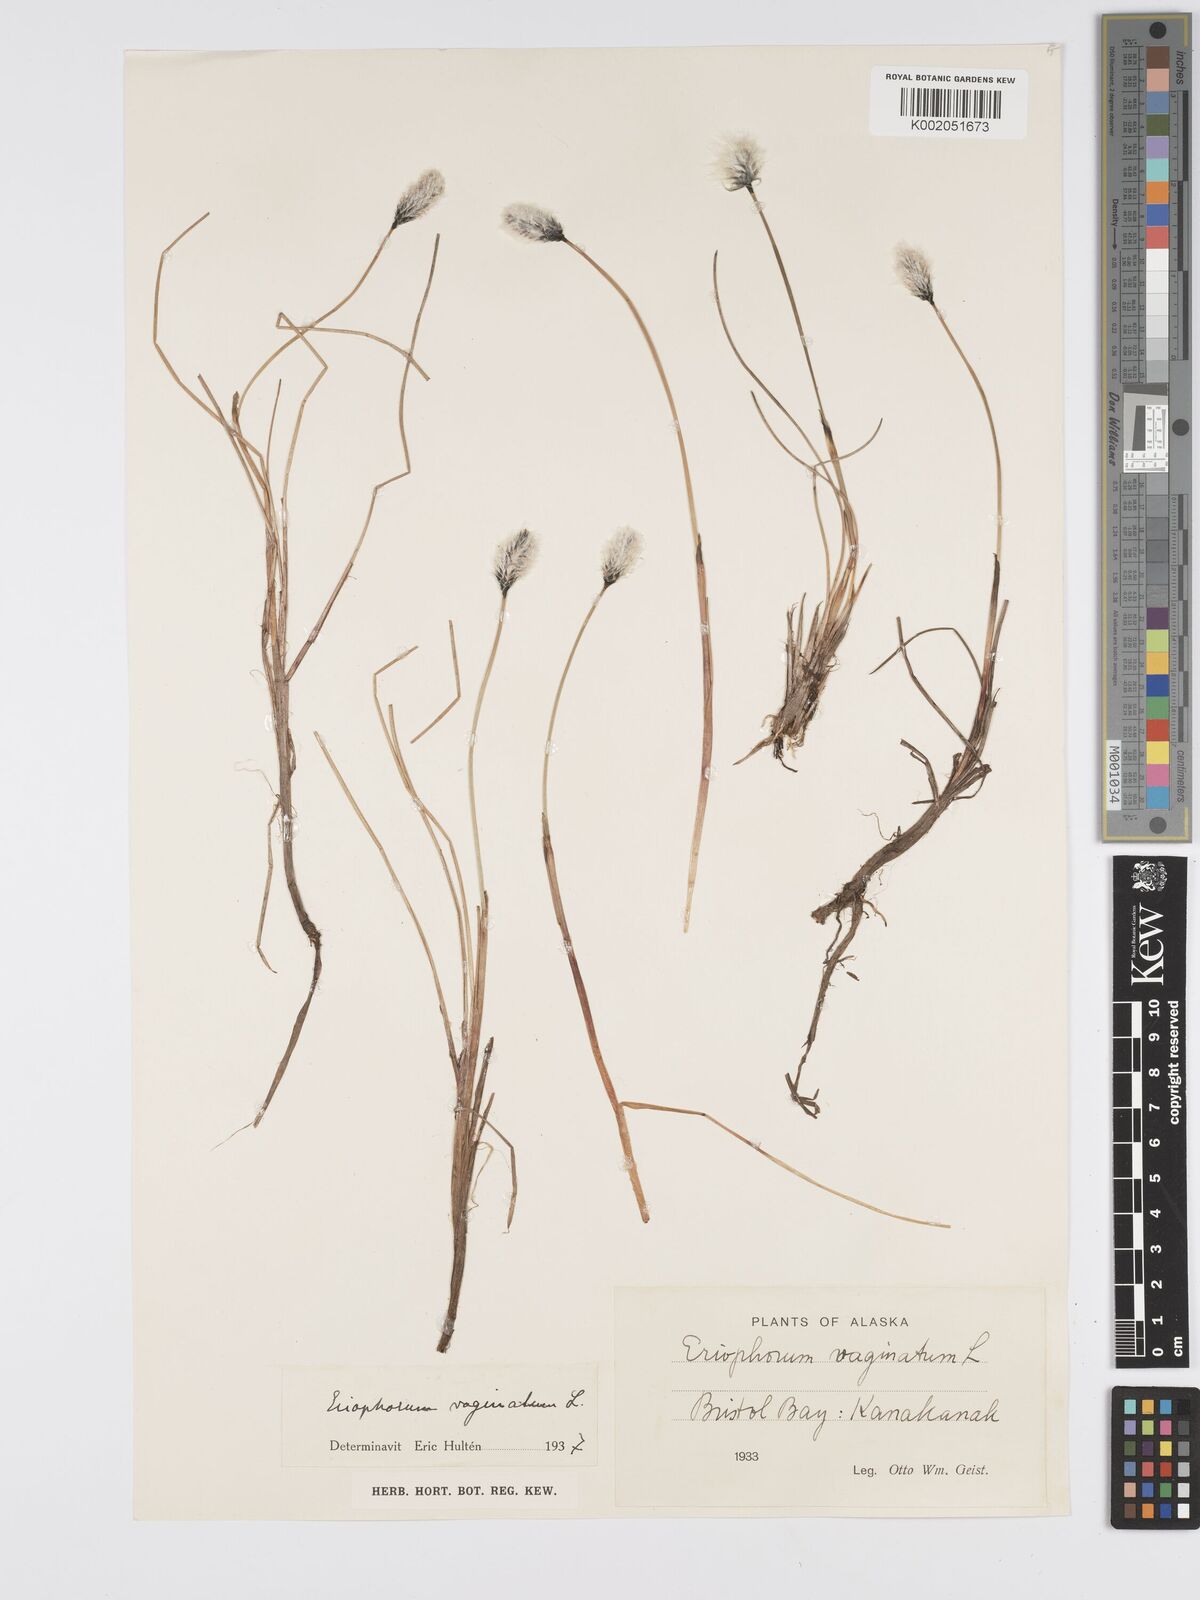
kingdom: Plantae
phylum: Tracheophyta
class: Liliopsida
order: Poales
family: Cyperaceae
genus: Eriophorum
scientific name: Eriophorum vaginatum
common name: Hare's-tail cottongrass
